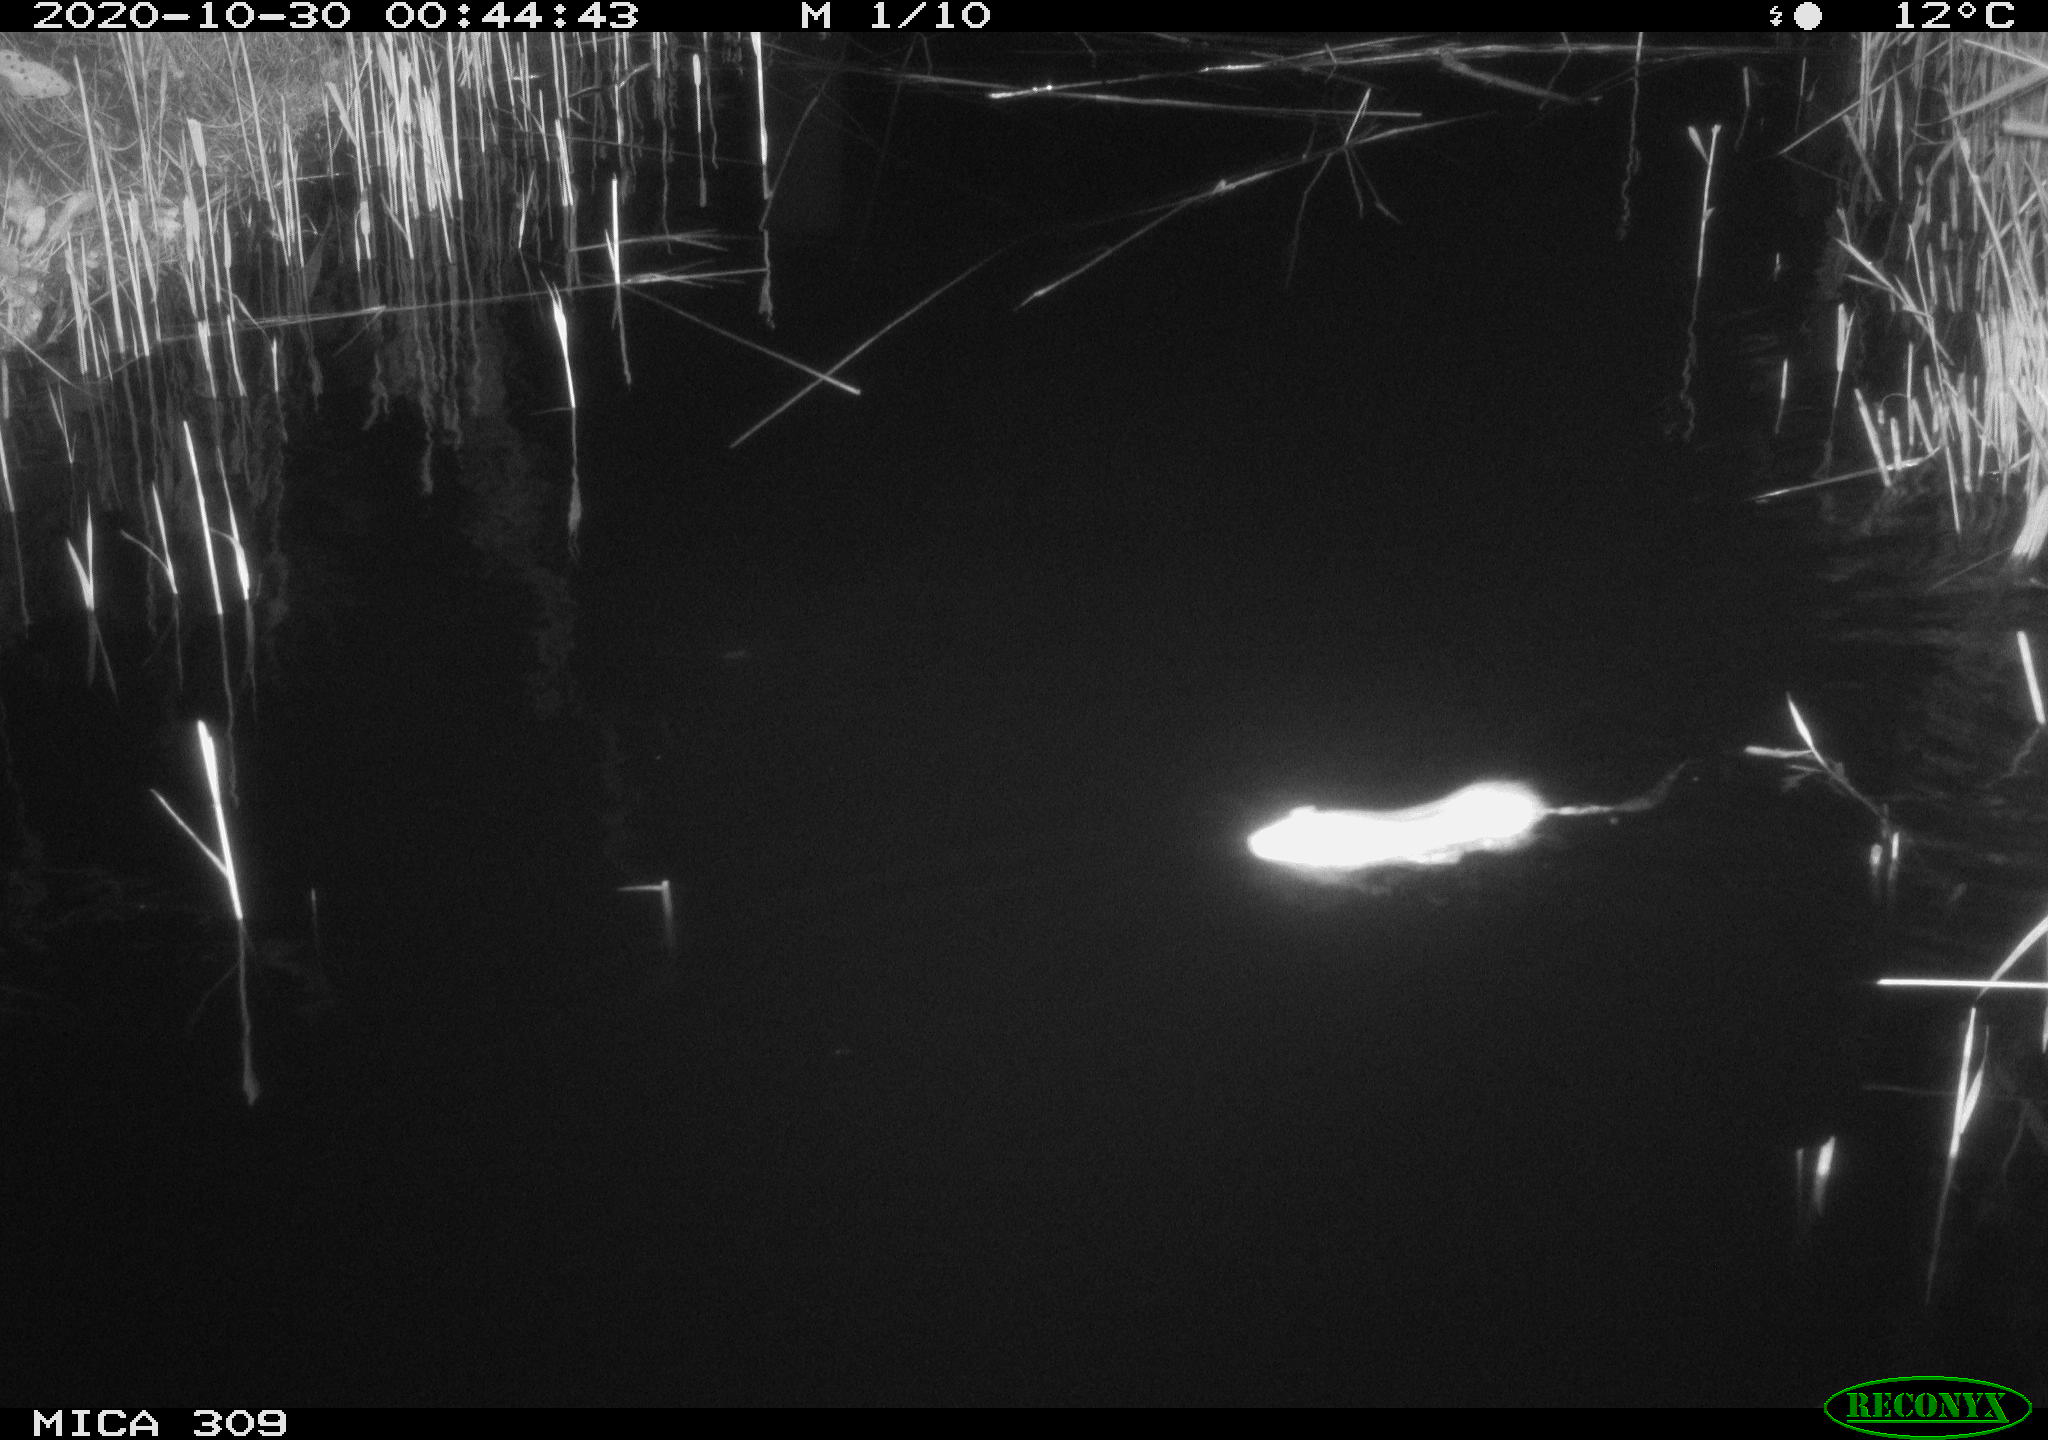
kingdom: Animalia
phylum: Chordata
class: Mammalia
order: Rodentia
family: Muridae
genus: Rattus
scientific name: Rattus norvegicus
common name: Brown rat
